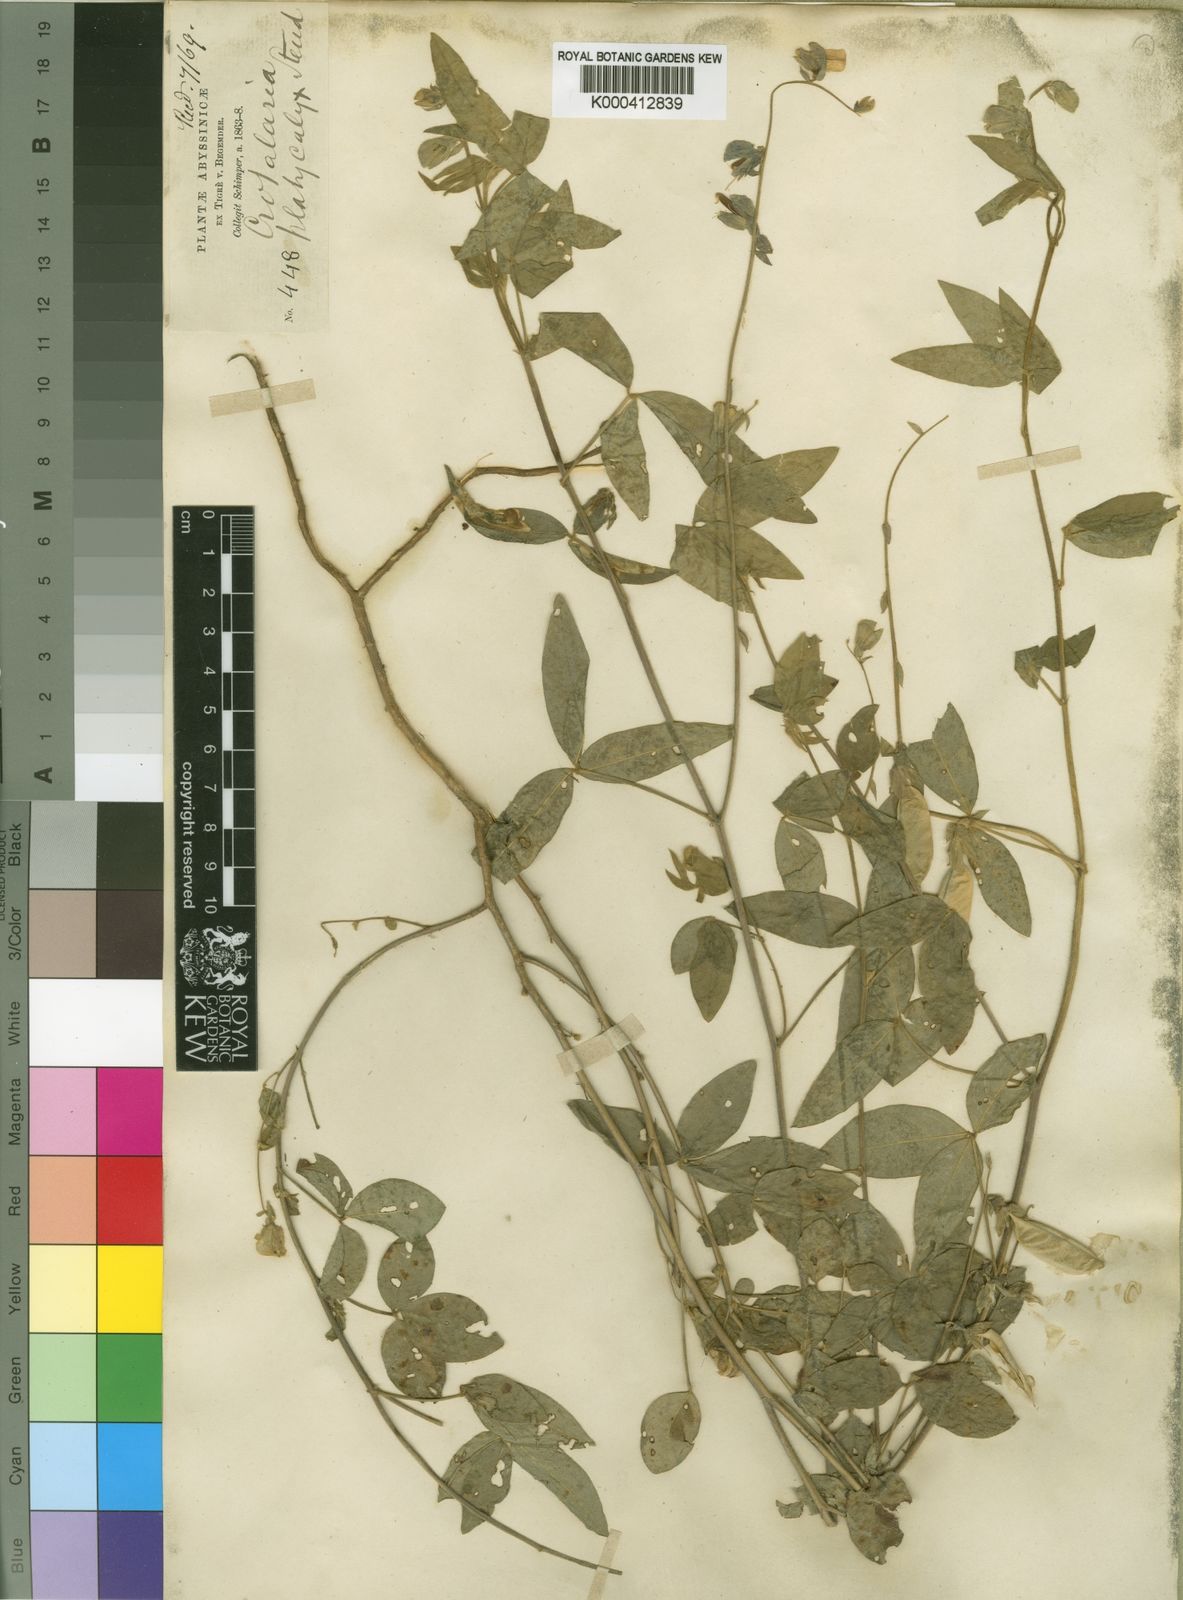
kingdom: Plantae
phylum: Tracheophyta
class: Magnoliopsida
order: Fabales
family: Fabaceae
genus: Crotalaria
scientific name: Crotalaria quartiniana
